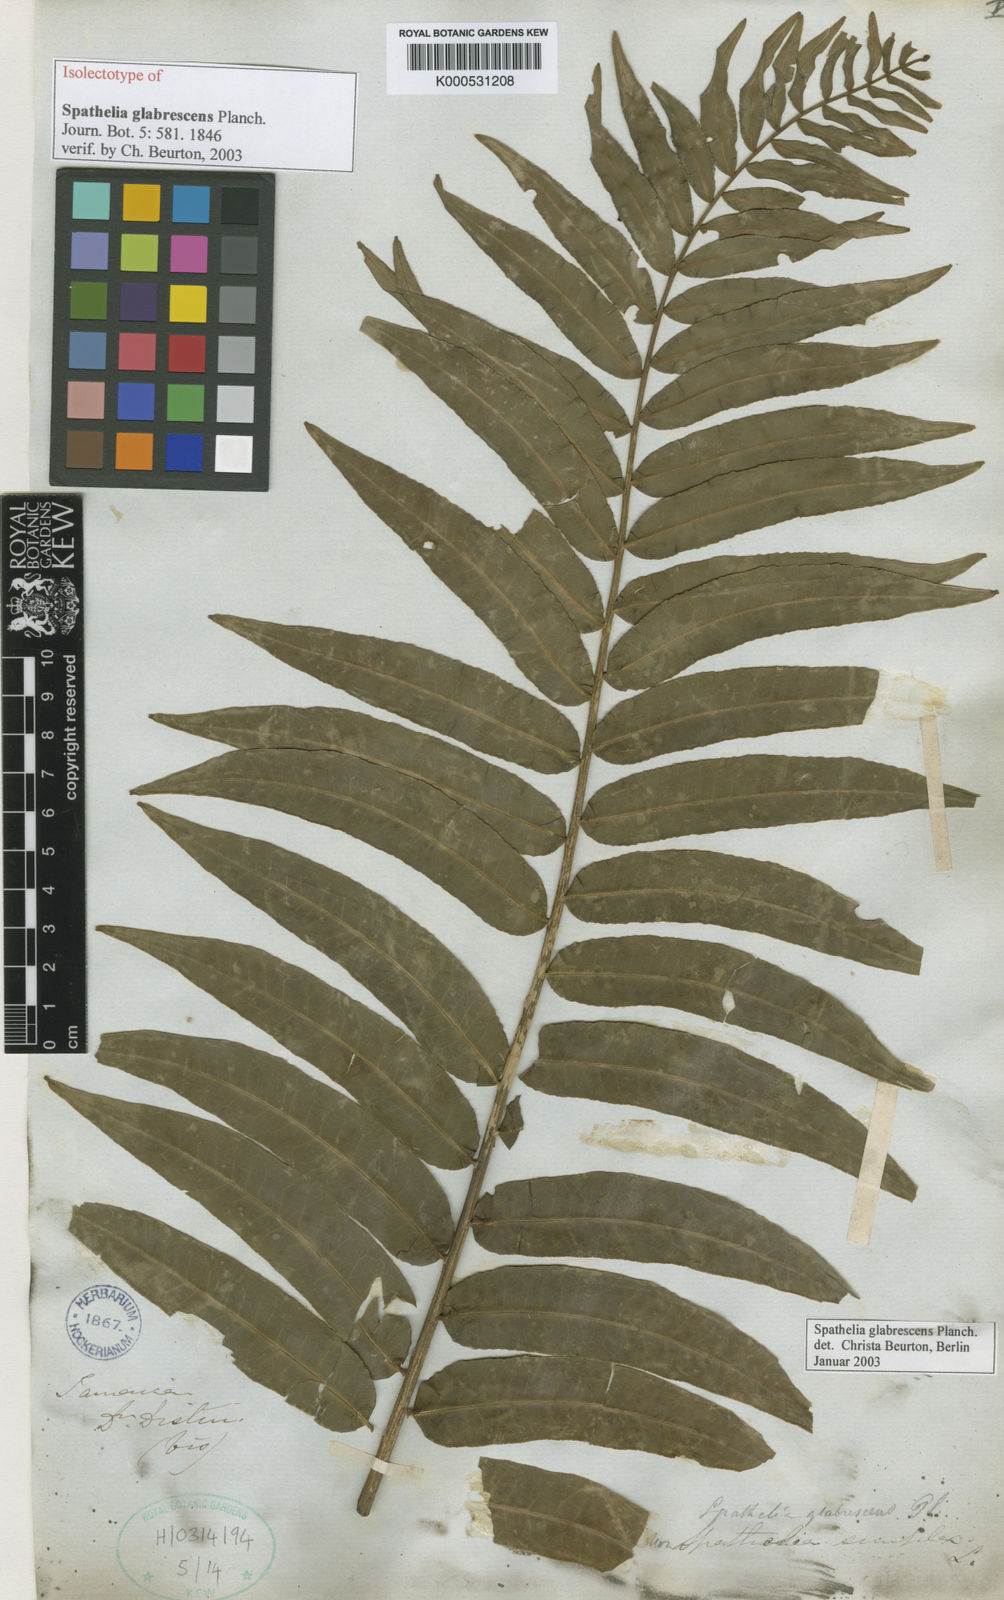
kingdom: Plantae
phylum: Tracheophyta
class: Magnoliopsida
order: Sapindales
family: Rutaceae
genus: Spathelia
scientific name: Spathelia glabrescens
